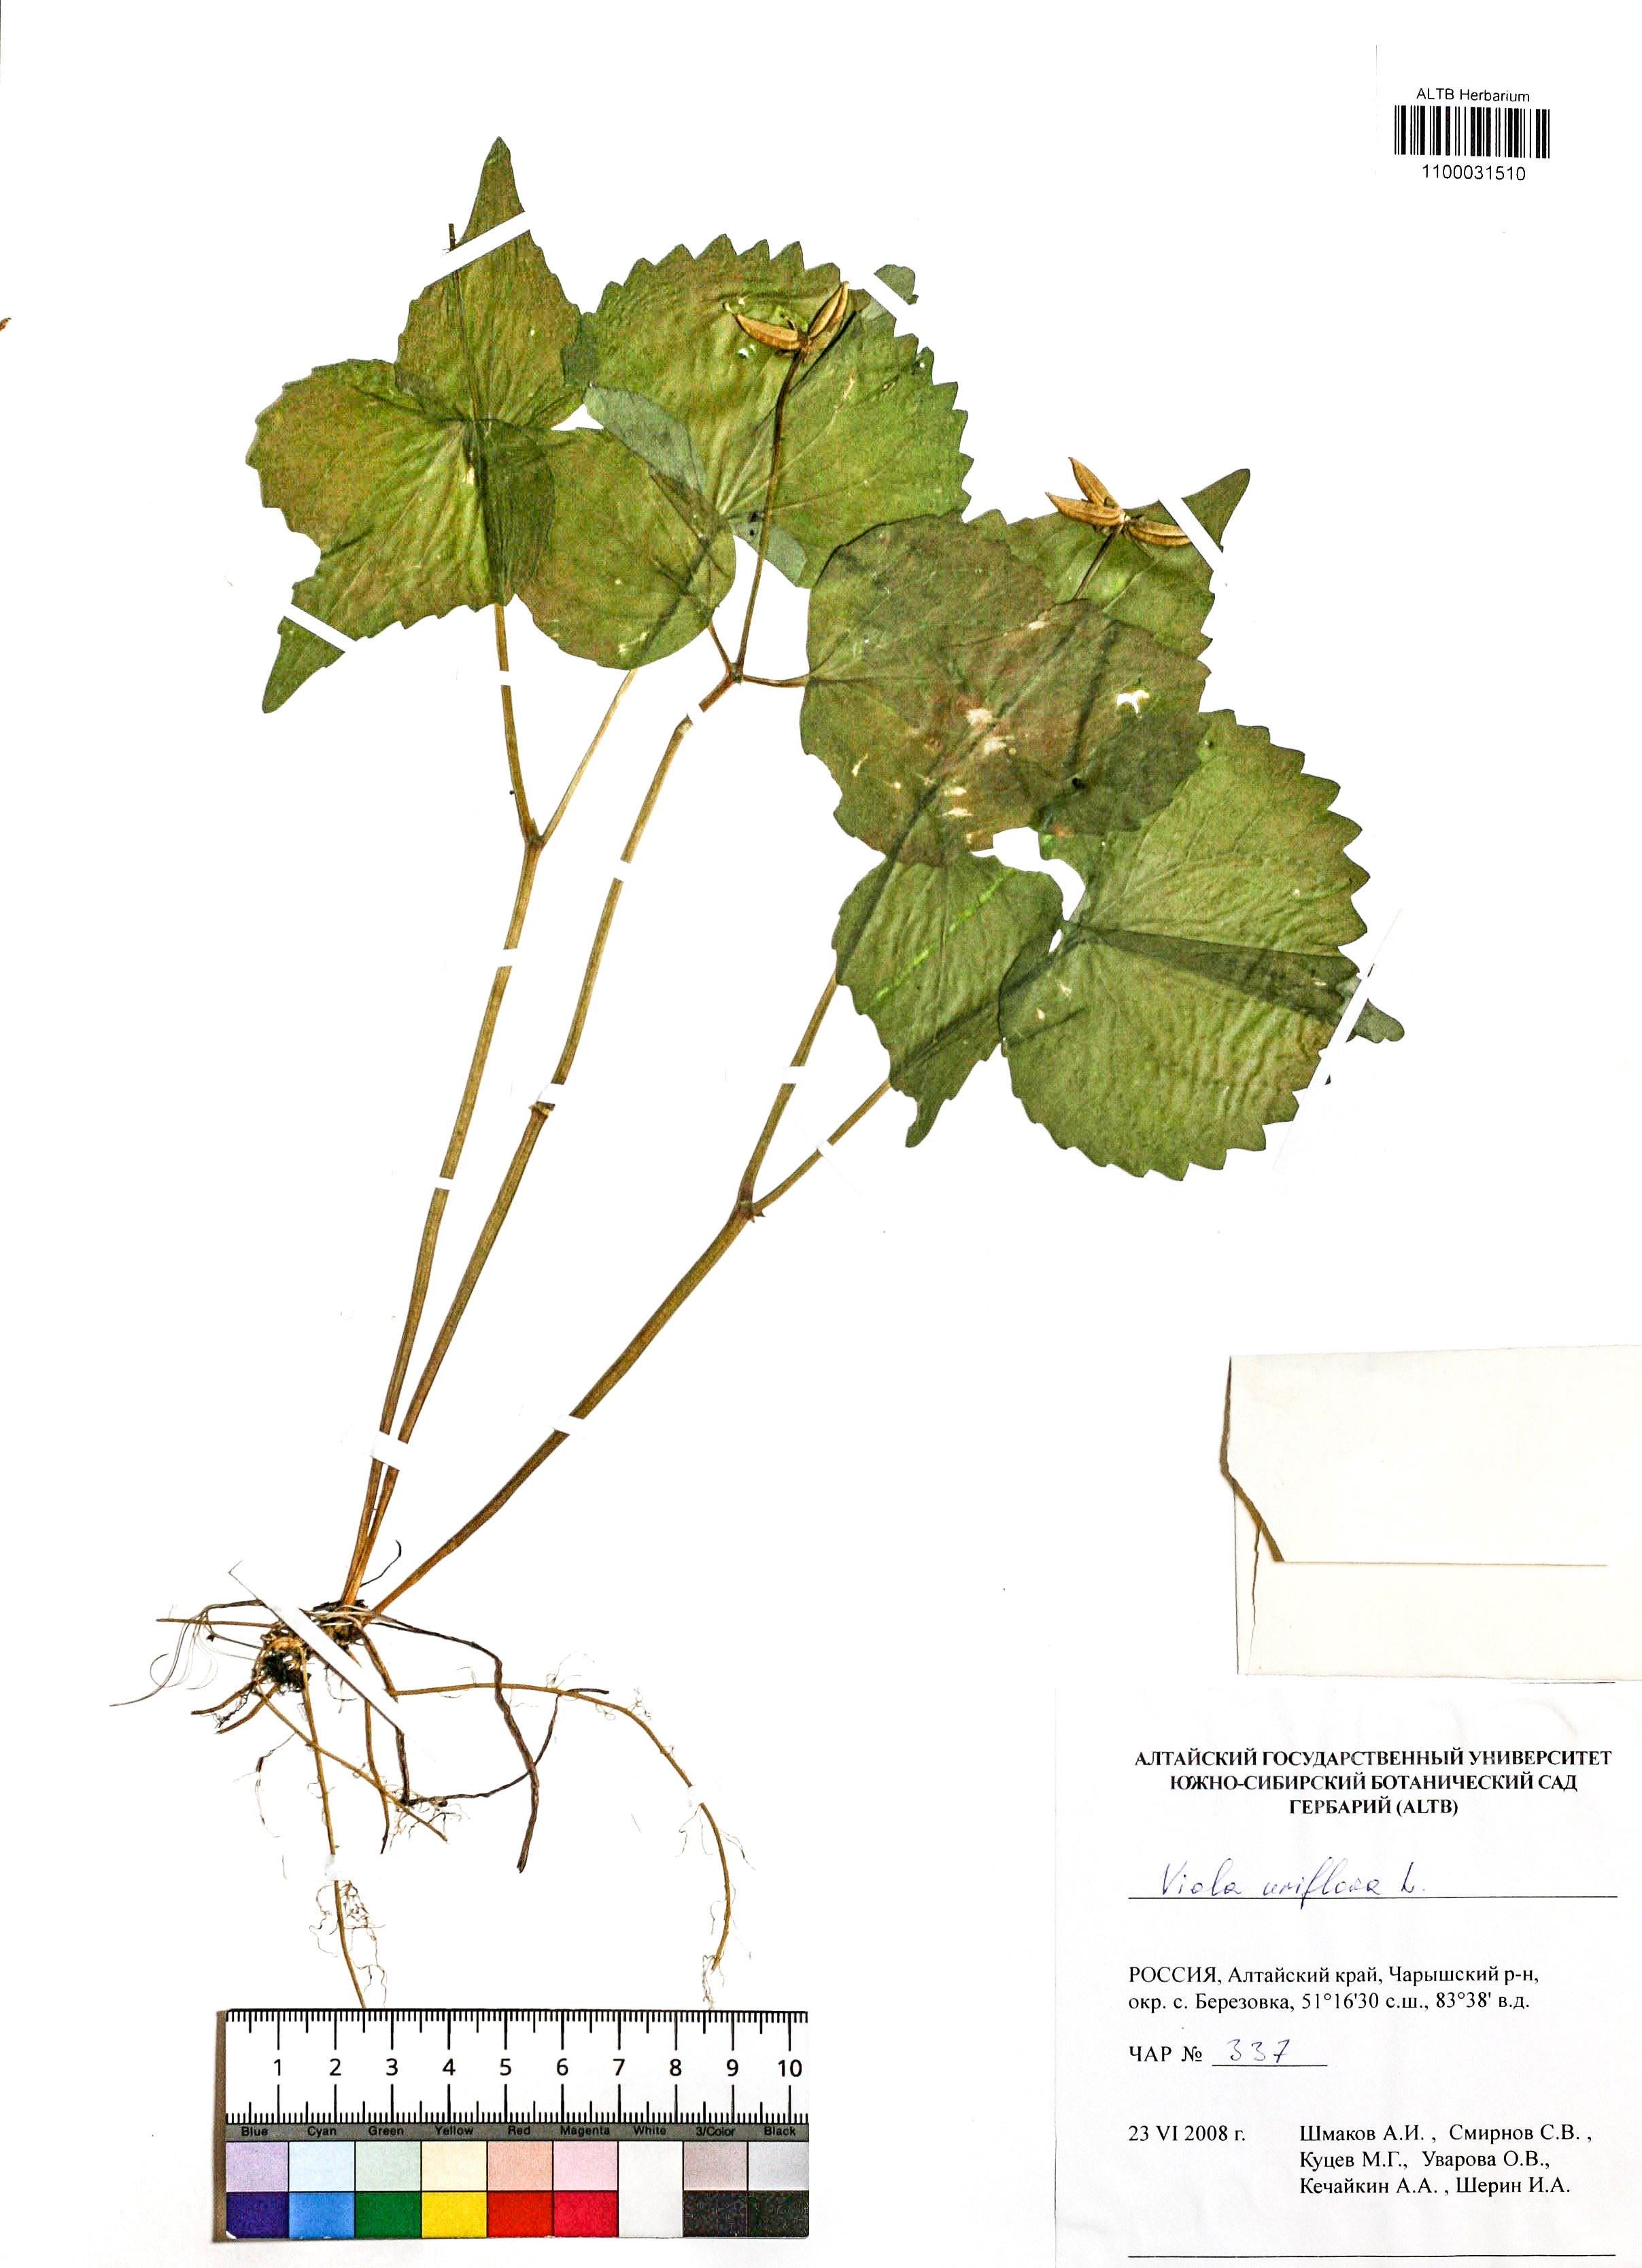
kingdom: Plantae
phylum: Tracheophyta
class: Magnoliopsida
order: Malpighiales
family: Violaceae
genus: Viola
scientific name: Viola uniflora
